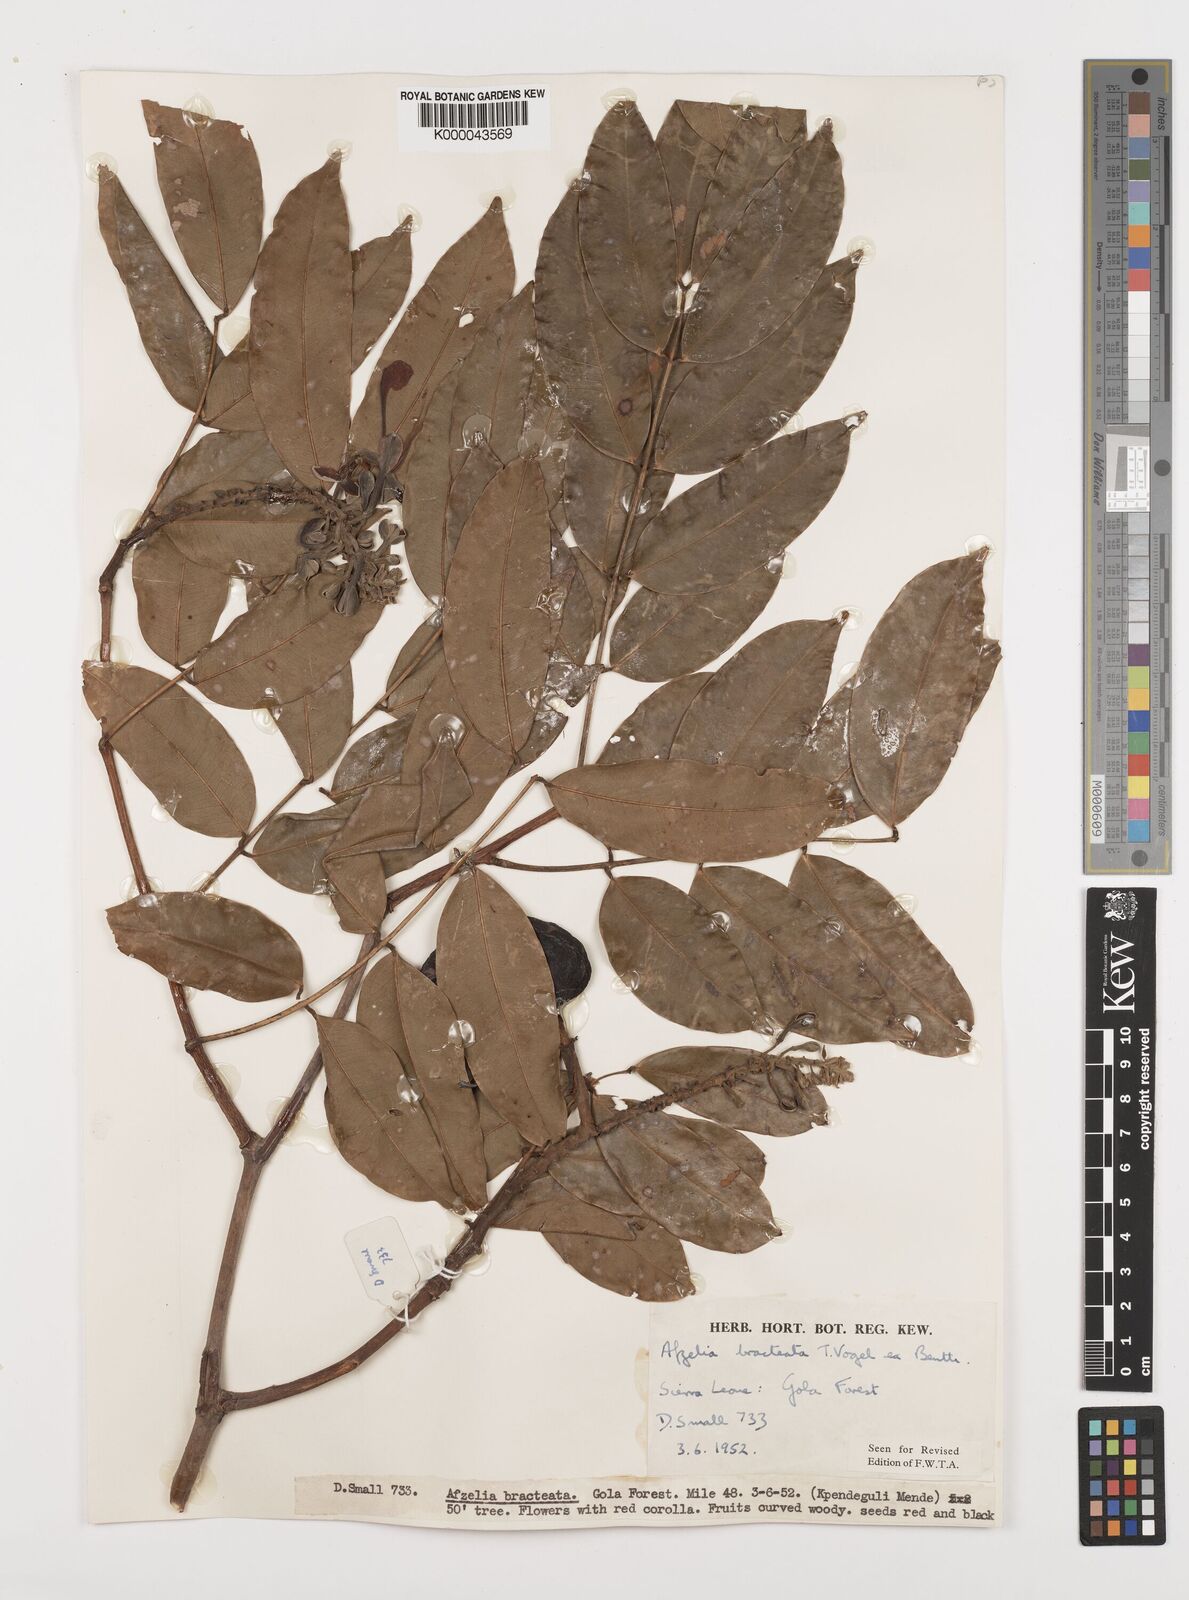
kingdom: Plantae
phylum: Tracheophyta
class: Magnoliopsida
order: Fabales
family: Fabaceae
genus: Afzelia
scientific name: Afzelia
